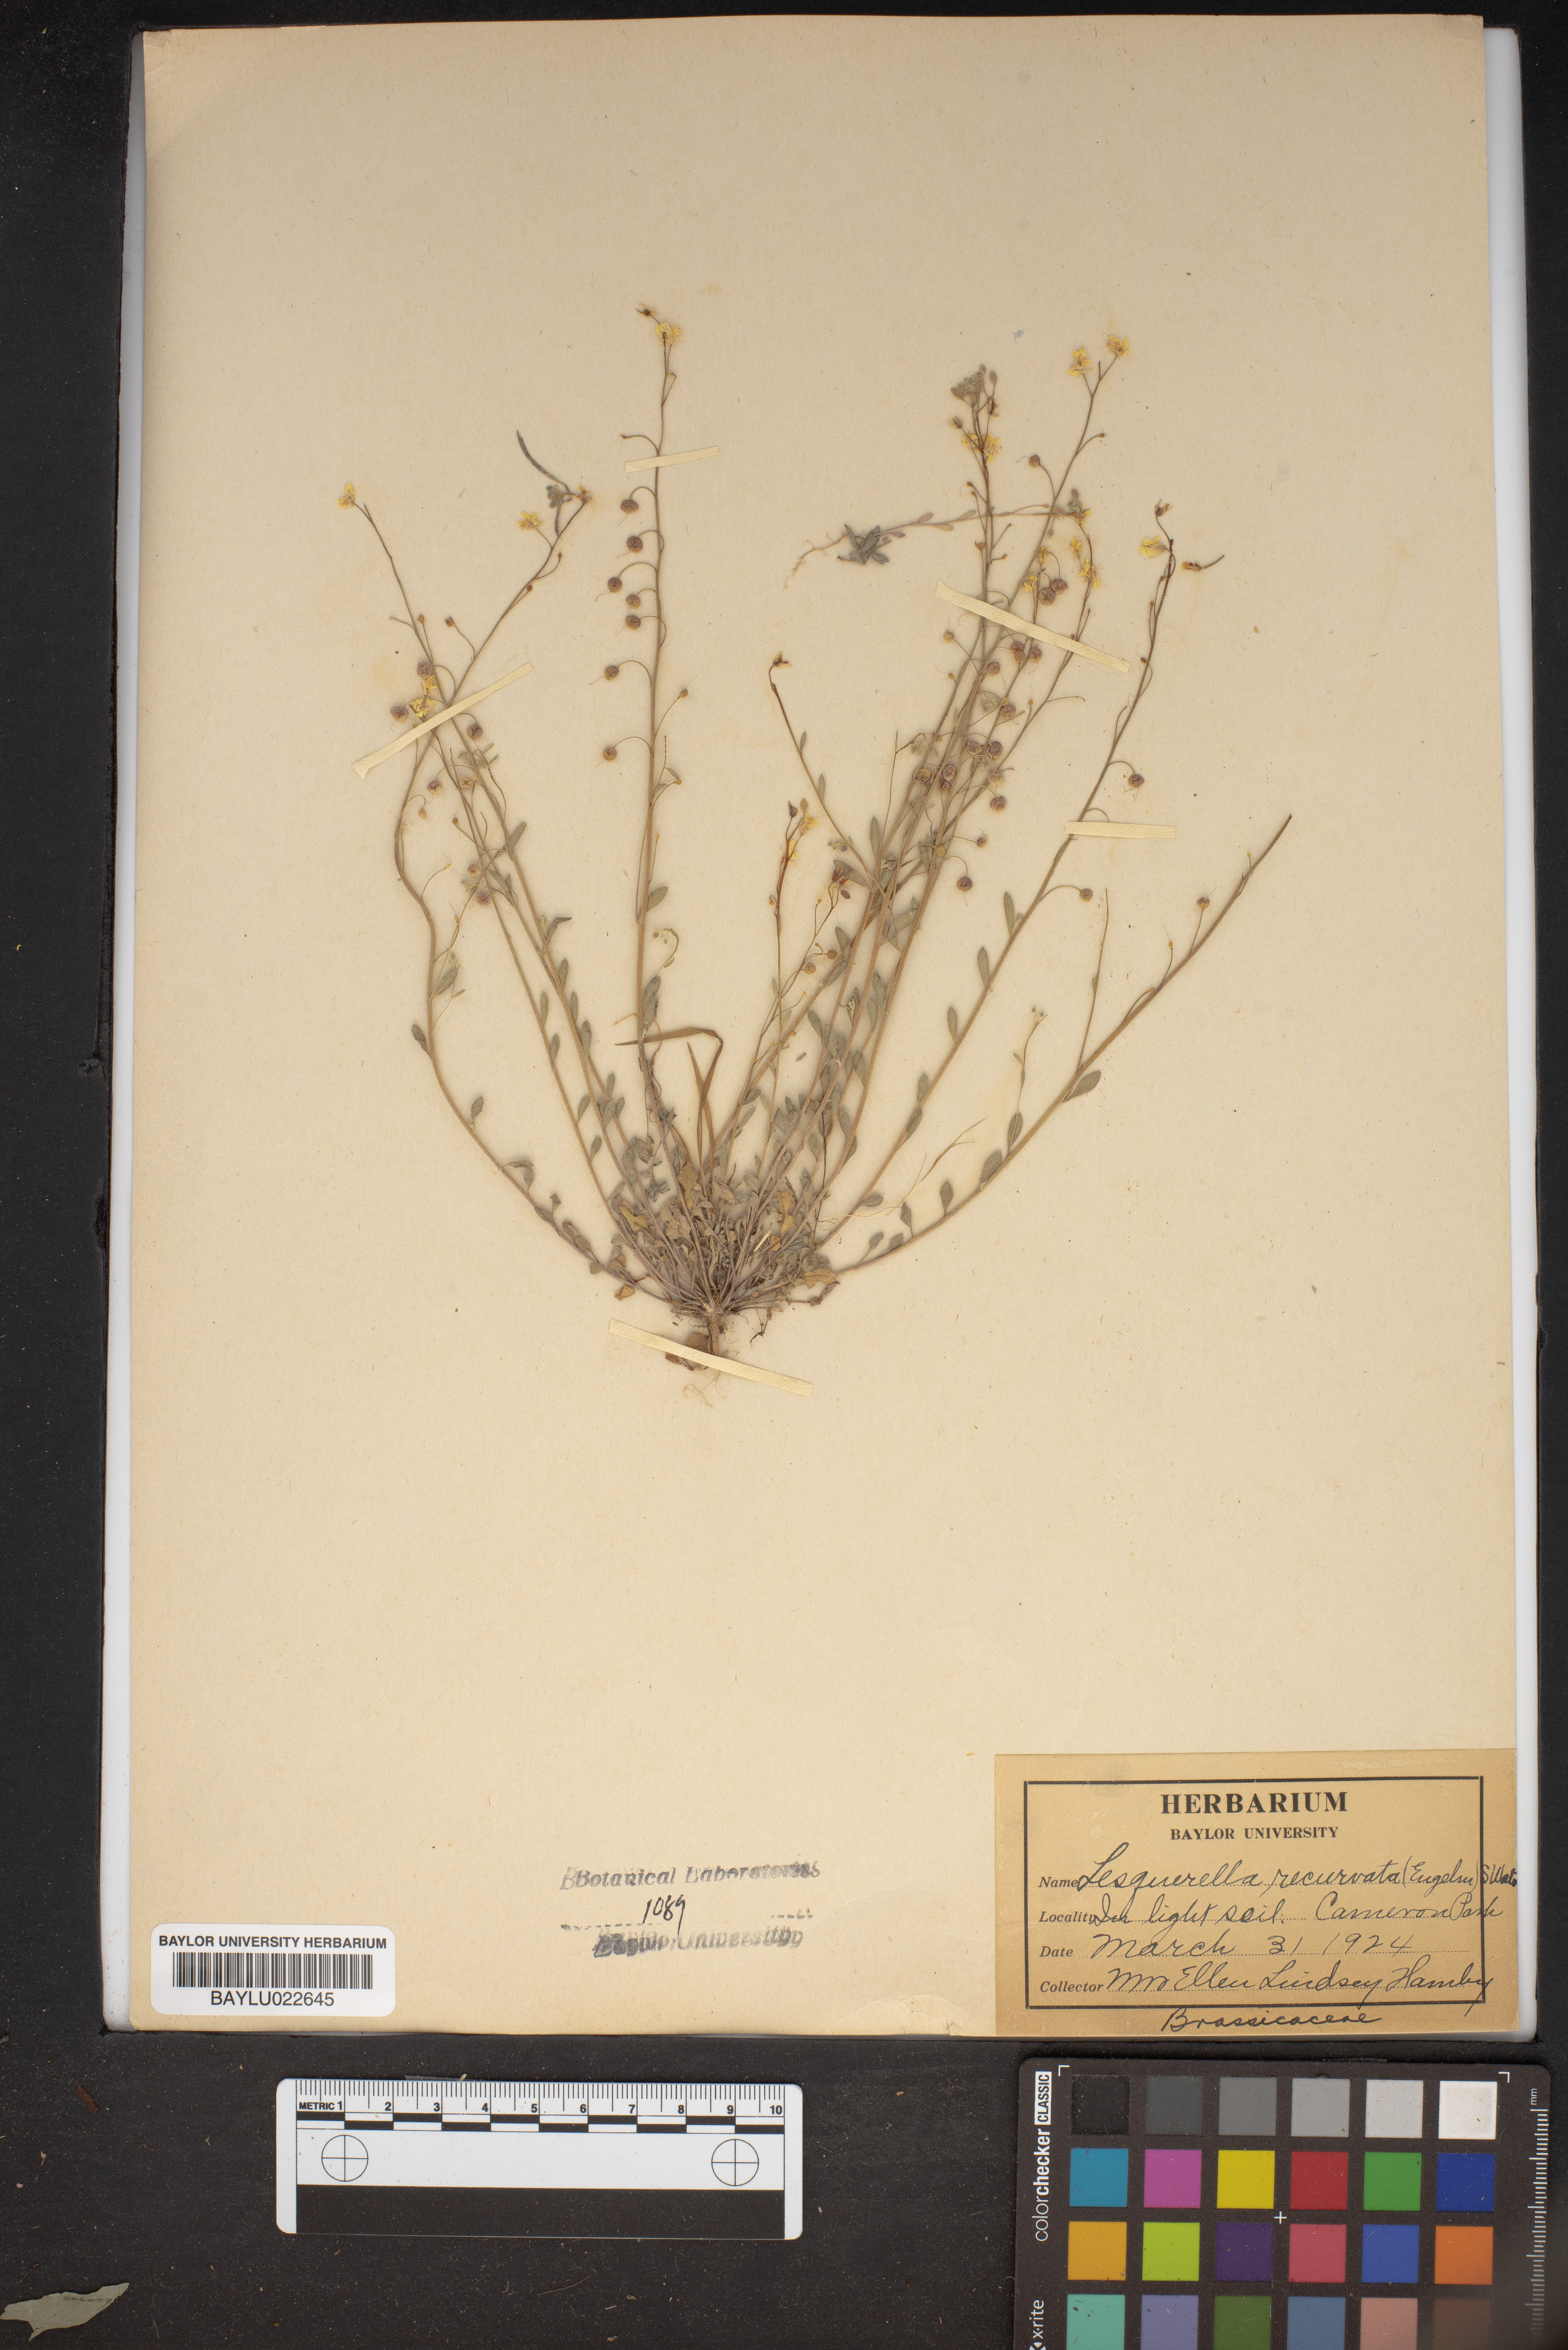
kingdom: Plantae
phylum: Tracheophyta
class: Magnoliopsida
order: Brassicales
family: Brassicaceae
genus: Physaria
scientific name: Physaria recurvata
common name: Gaslight bladderpod
